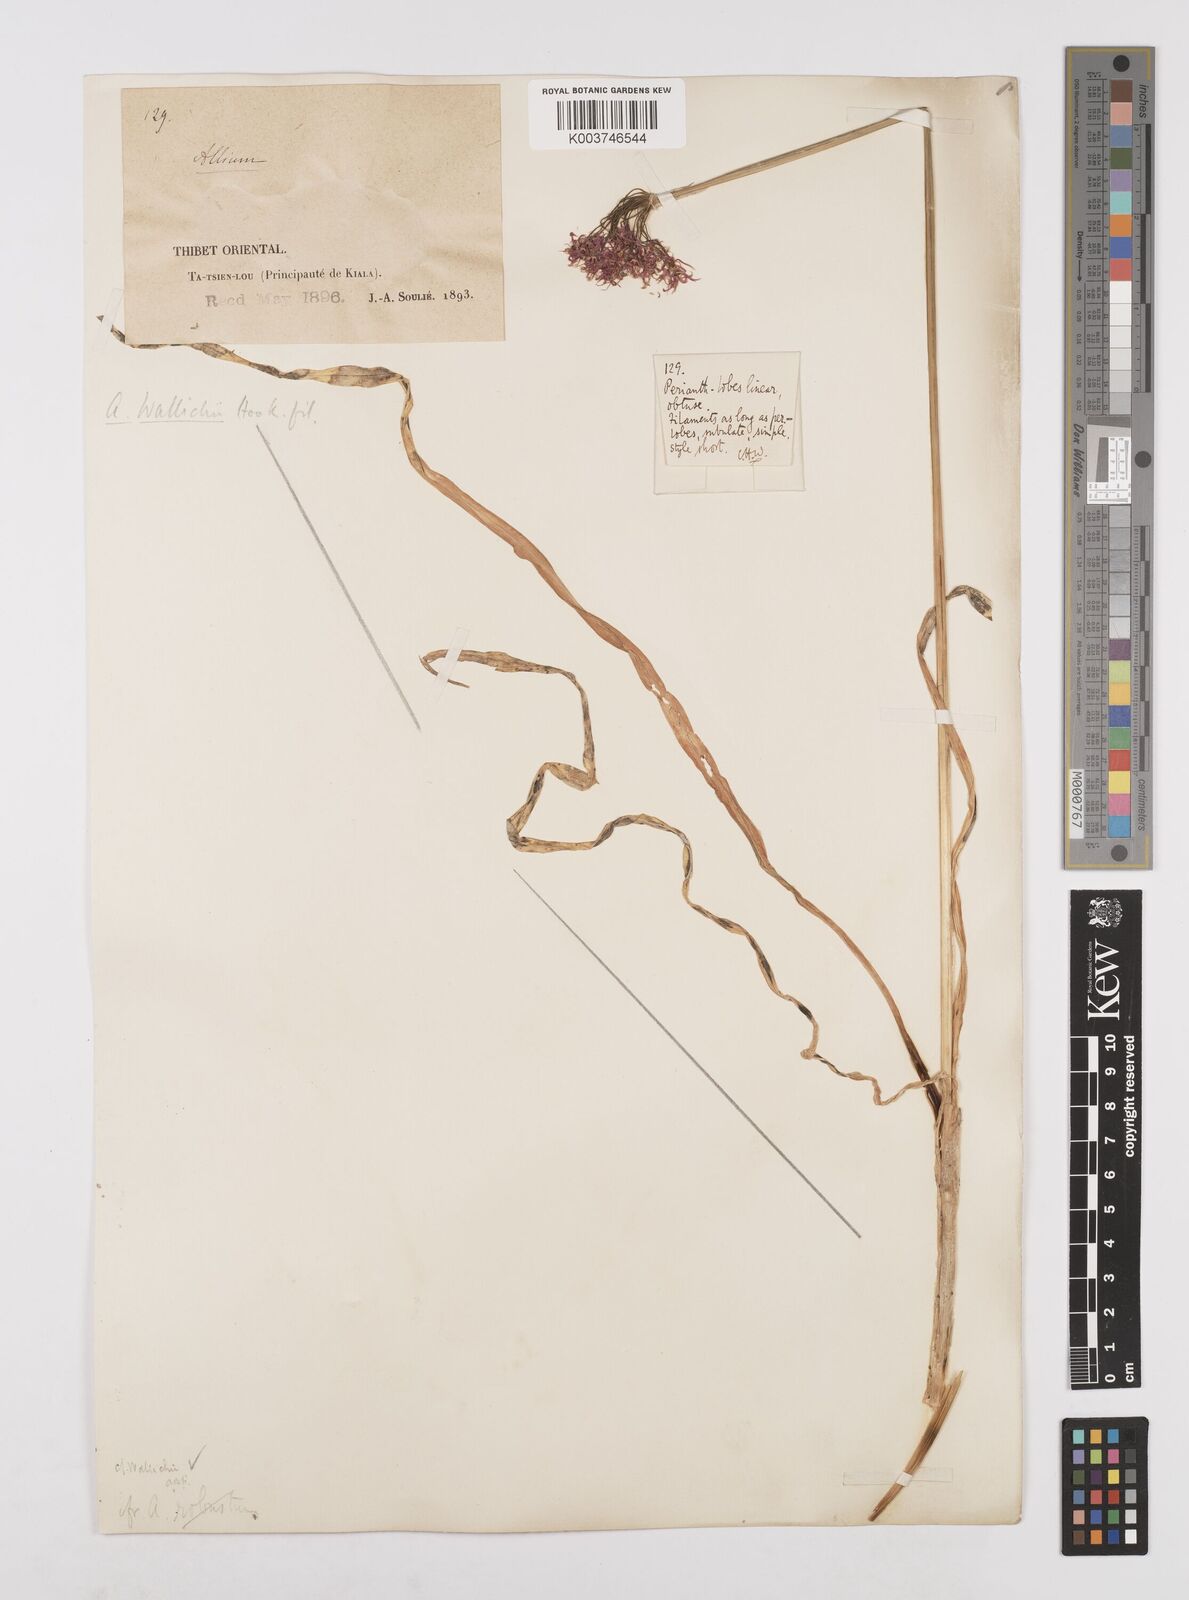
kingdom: Plantae
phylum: Tracheophyta
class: Liliopsida
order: Asparagales
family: Amaryllidaceae
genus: Allium
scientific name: Allium wallichii
